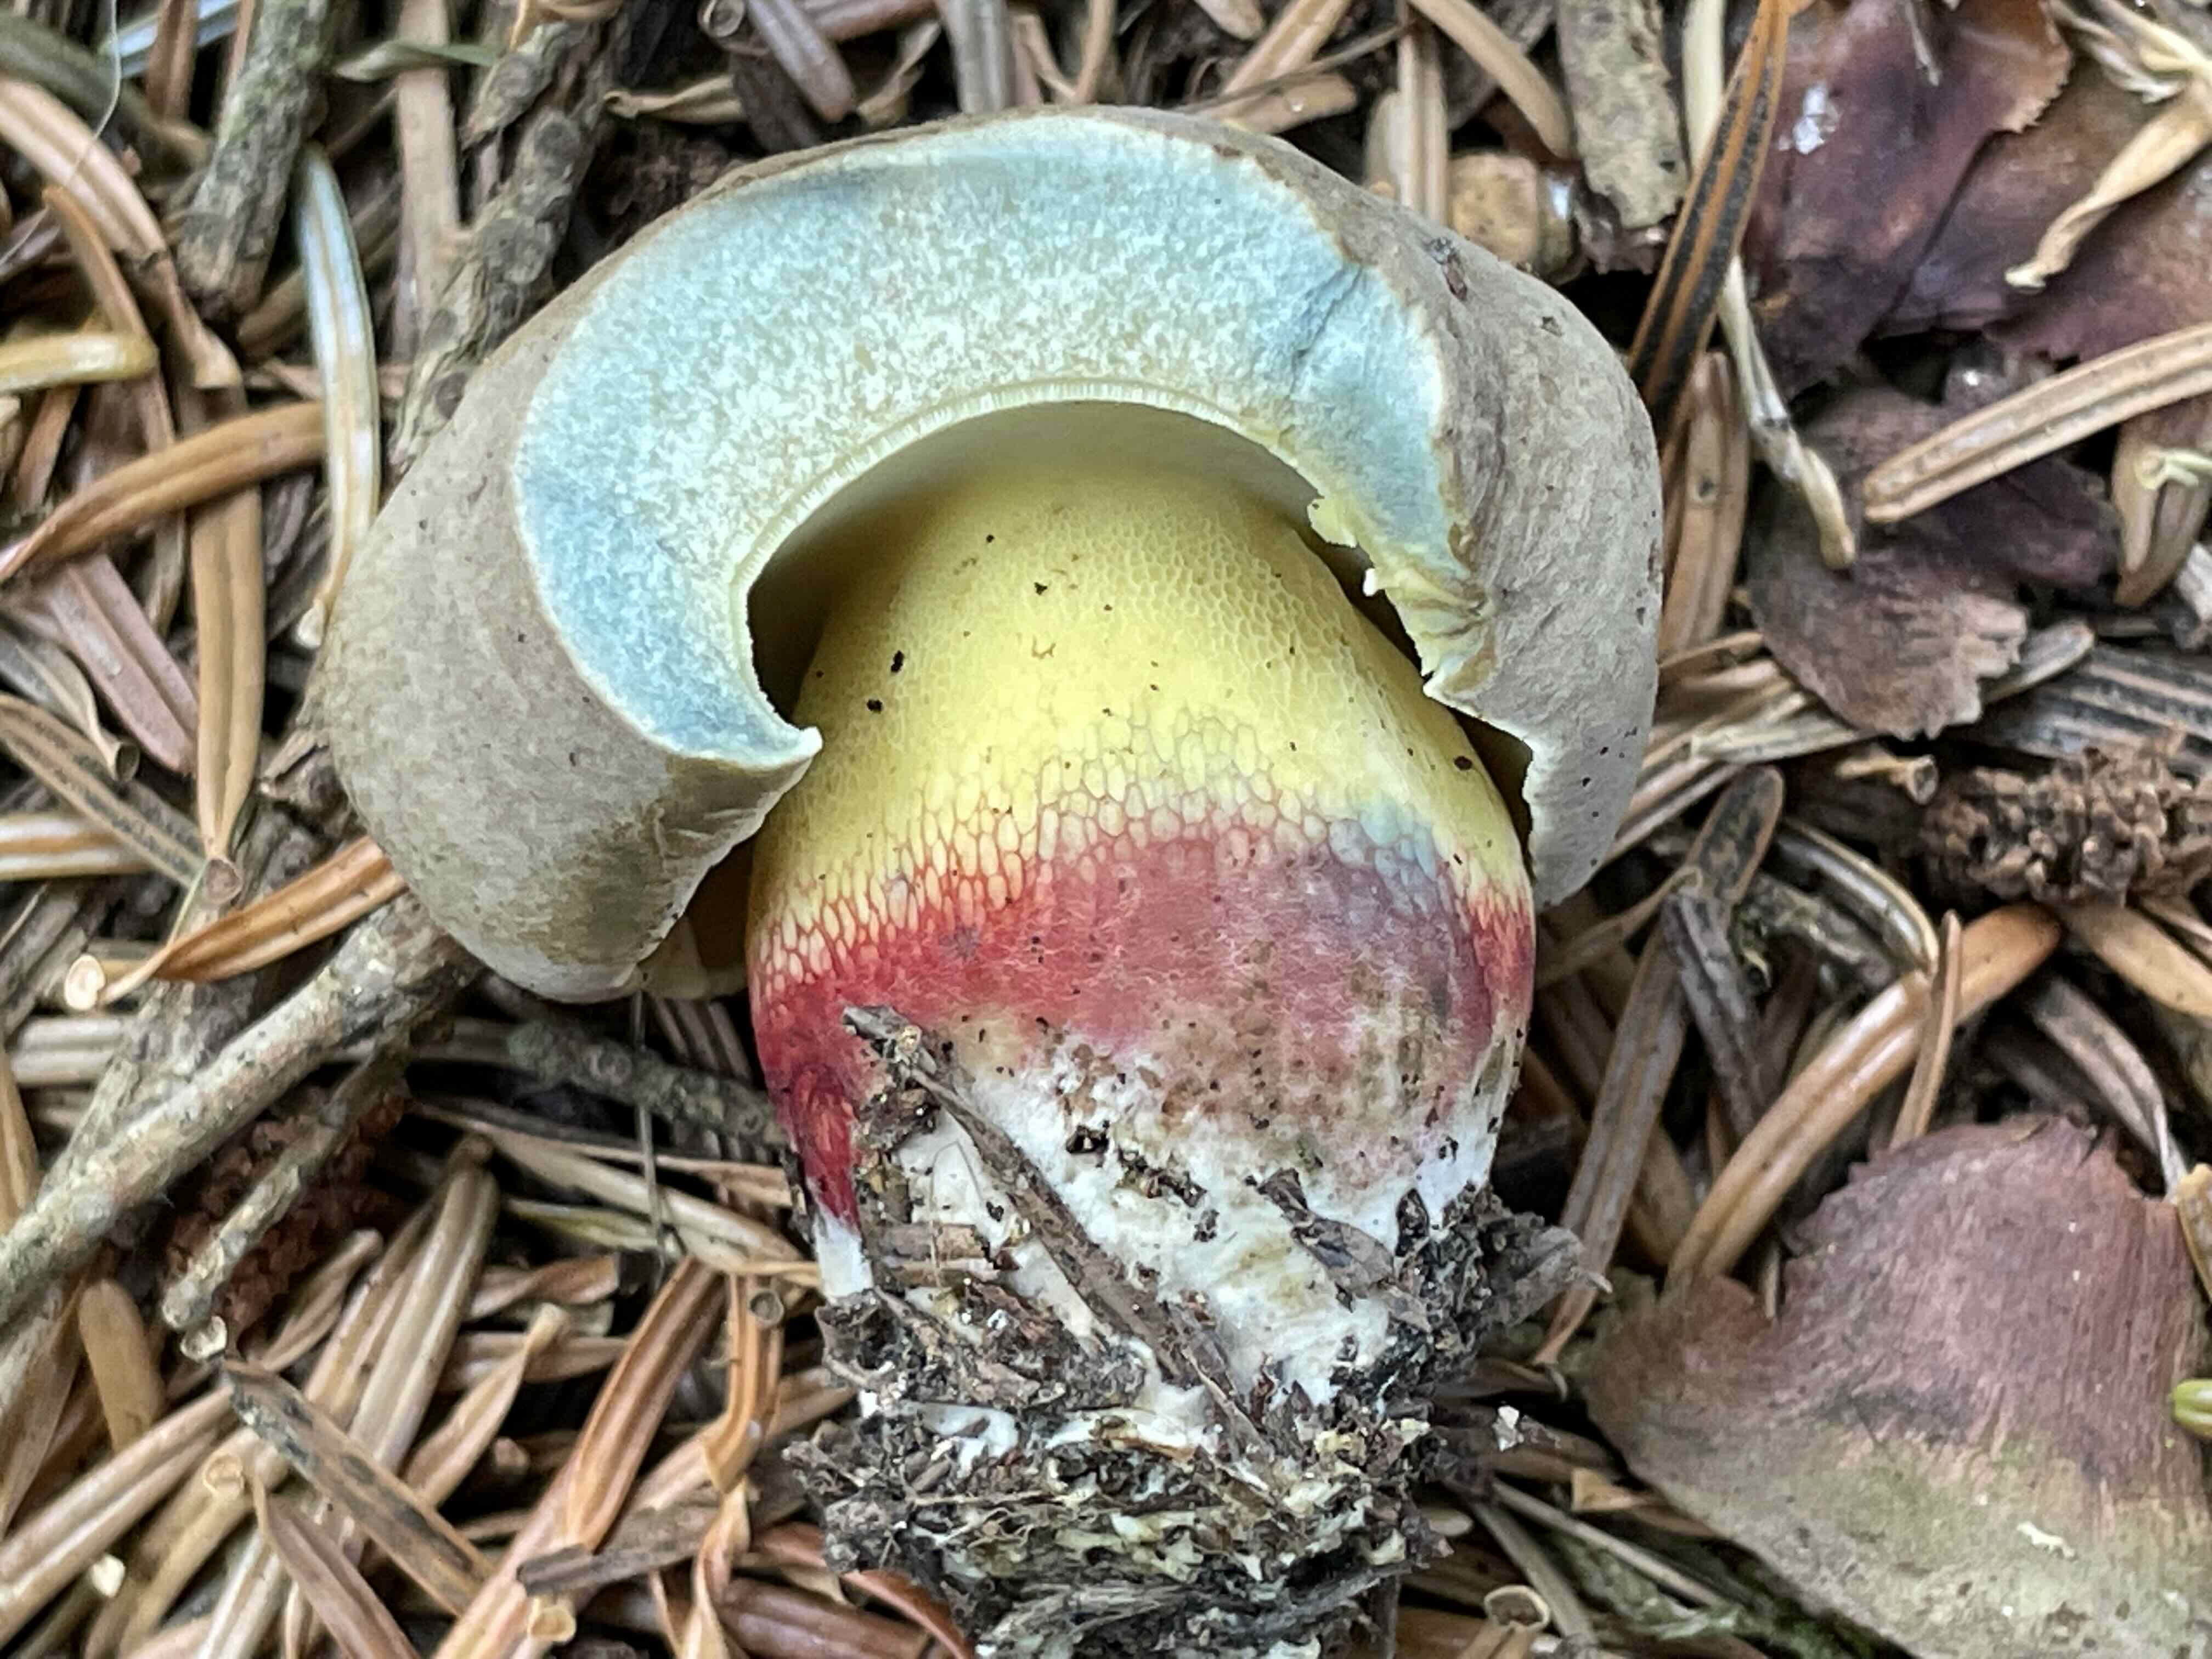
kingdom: Fungi
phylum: Basidiomycota
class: Agaricomycetes
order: Boletales
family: Boletaceae
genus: Caloboletus
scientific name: Caloboletus calopus
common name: skønfodet rørhat
